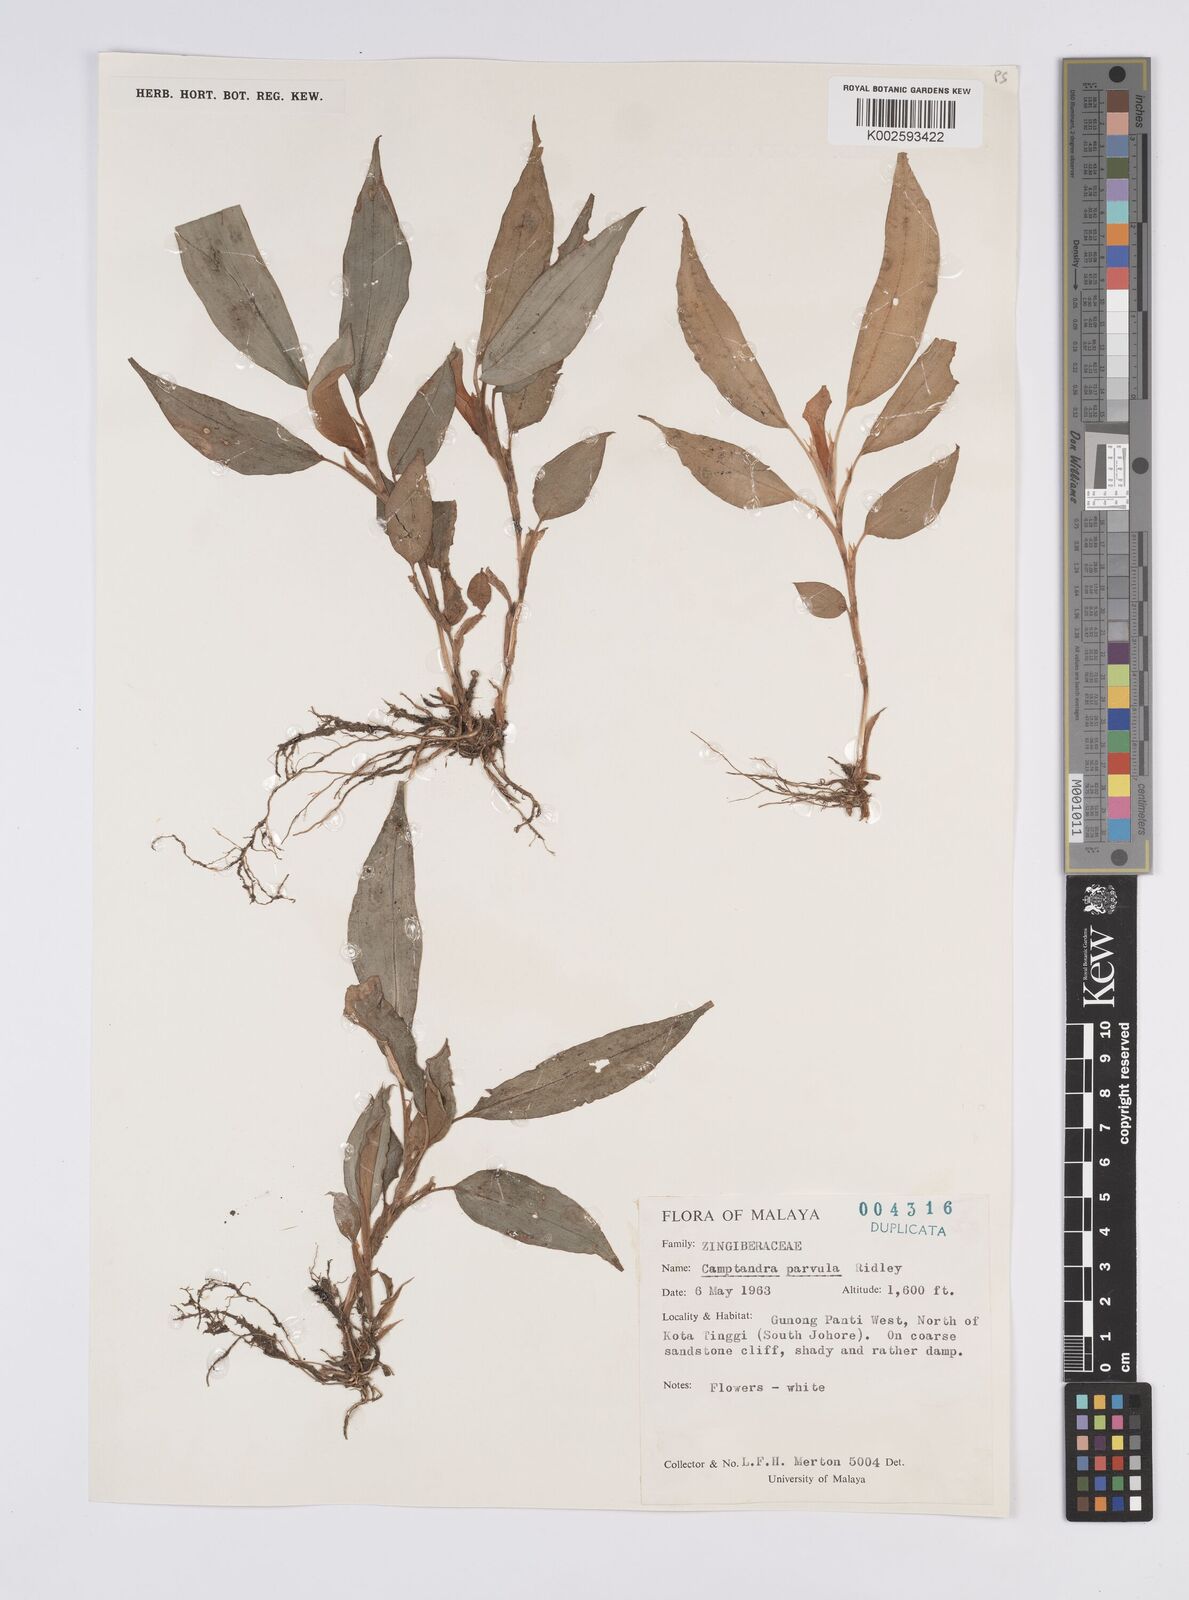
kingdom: Plantae
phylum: Tracheophyta
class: Liliopsida
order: Zingiberales
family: Zingiberaceae
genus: Camptandra
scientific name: Camptandra parvula
